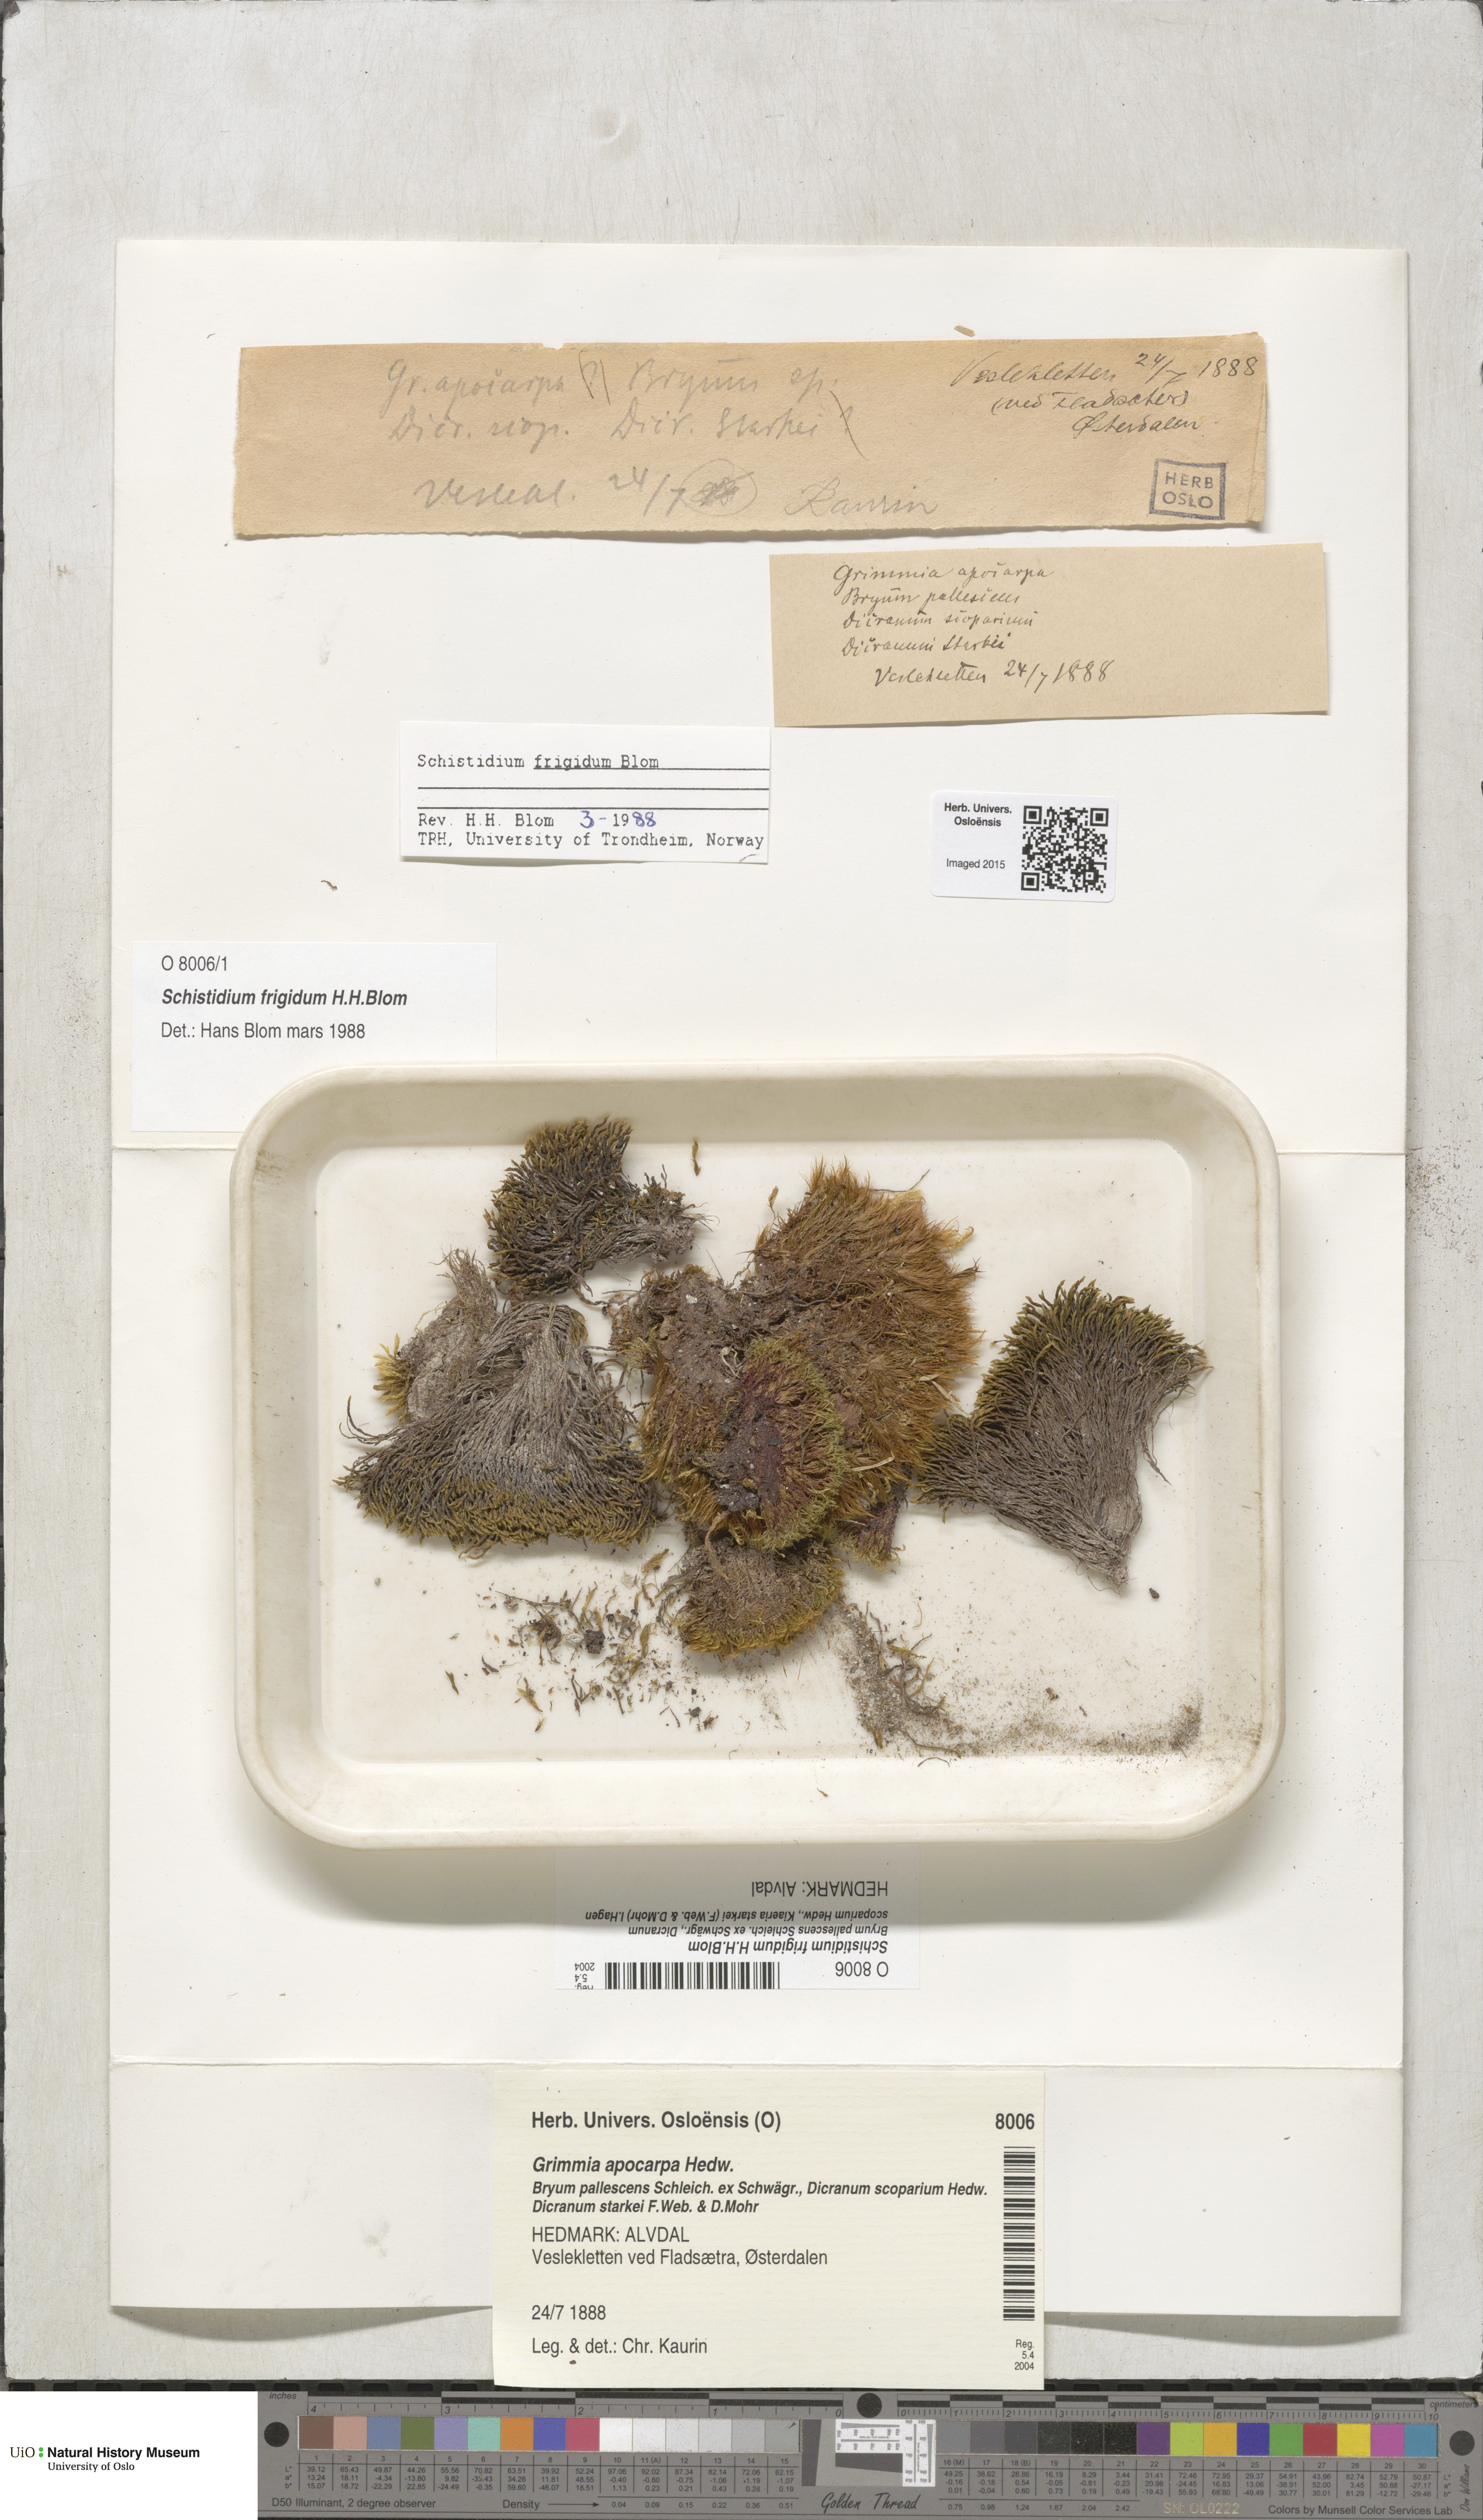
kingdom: Plantae
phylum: Bryophyta
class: Bryopsida
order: Grimmiales
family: Grimmiaceae
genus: Schistidium
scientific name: Schistidium frigidum
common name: Arctic-alpine bloom moss
